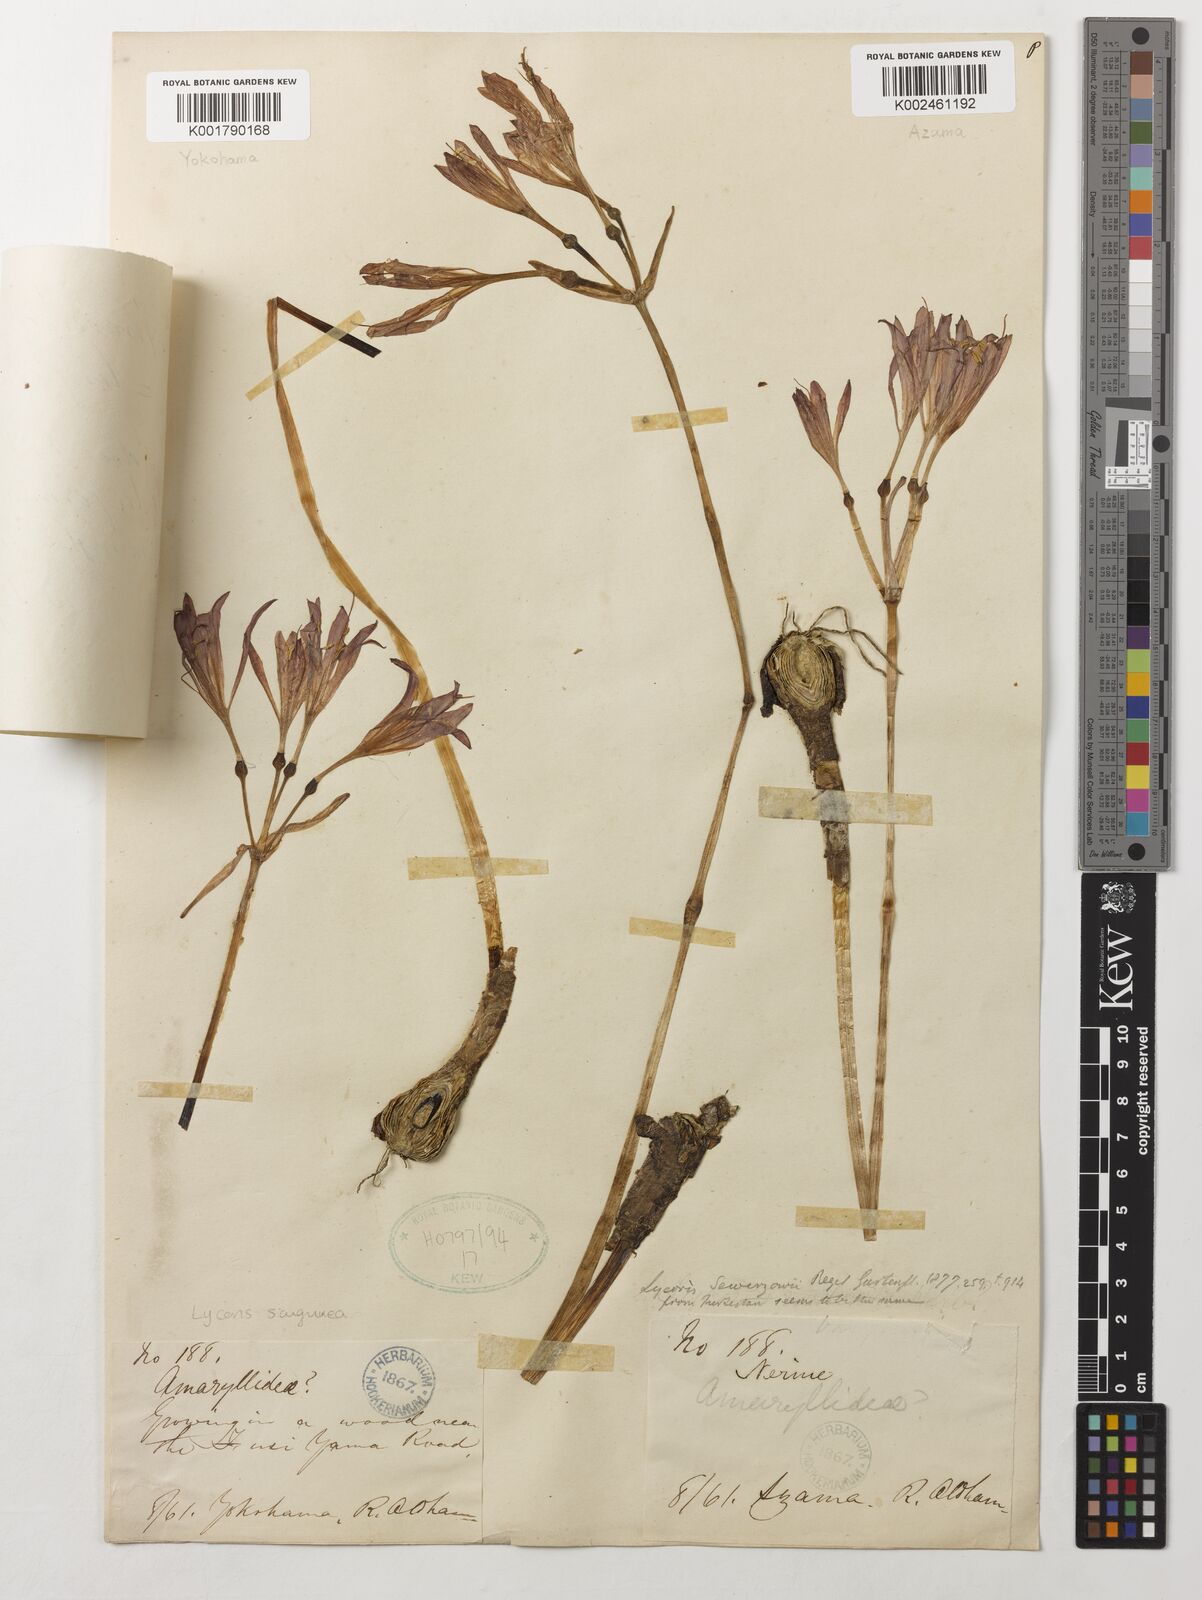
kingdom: Plantae
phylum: Tracheophyta
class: Liliopsida
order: Asparagales
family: Amaryllidaceae
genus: Lycoris
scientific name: Lycoris sanguinea
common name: Spider-lily
